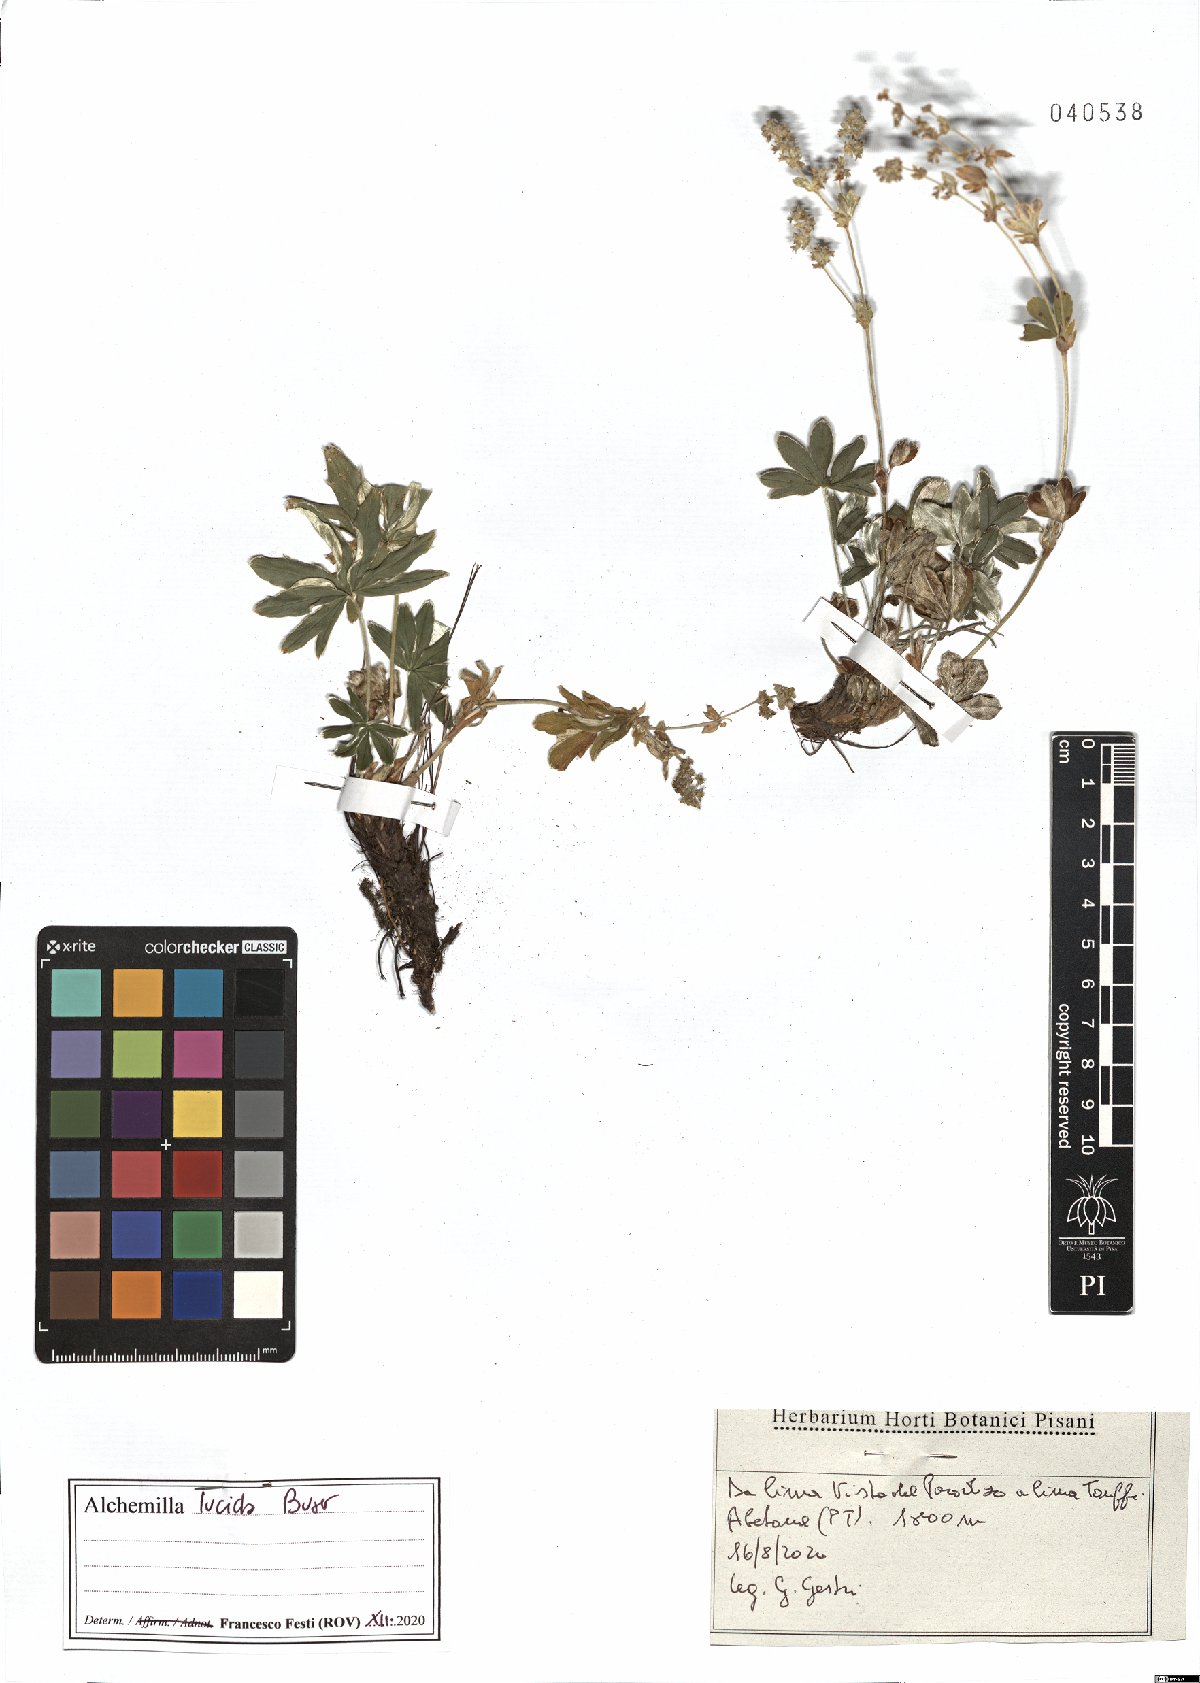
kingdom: Plantae
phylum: Tracheophyta
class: Magnoliopsida
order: Rosales
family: Rosaceae
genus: Alchemilla
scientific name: Alchemilla lucida
